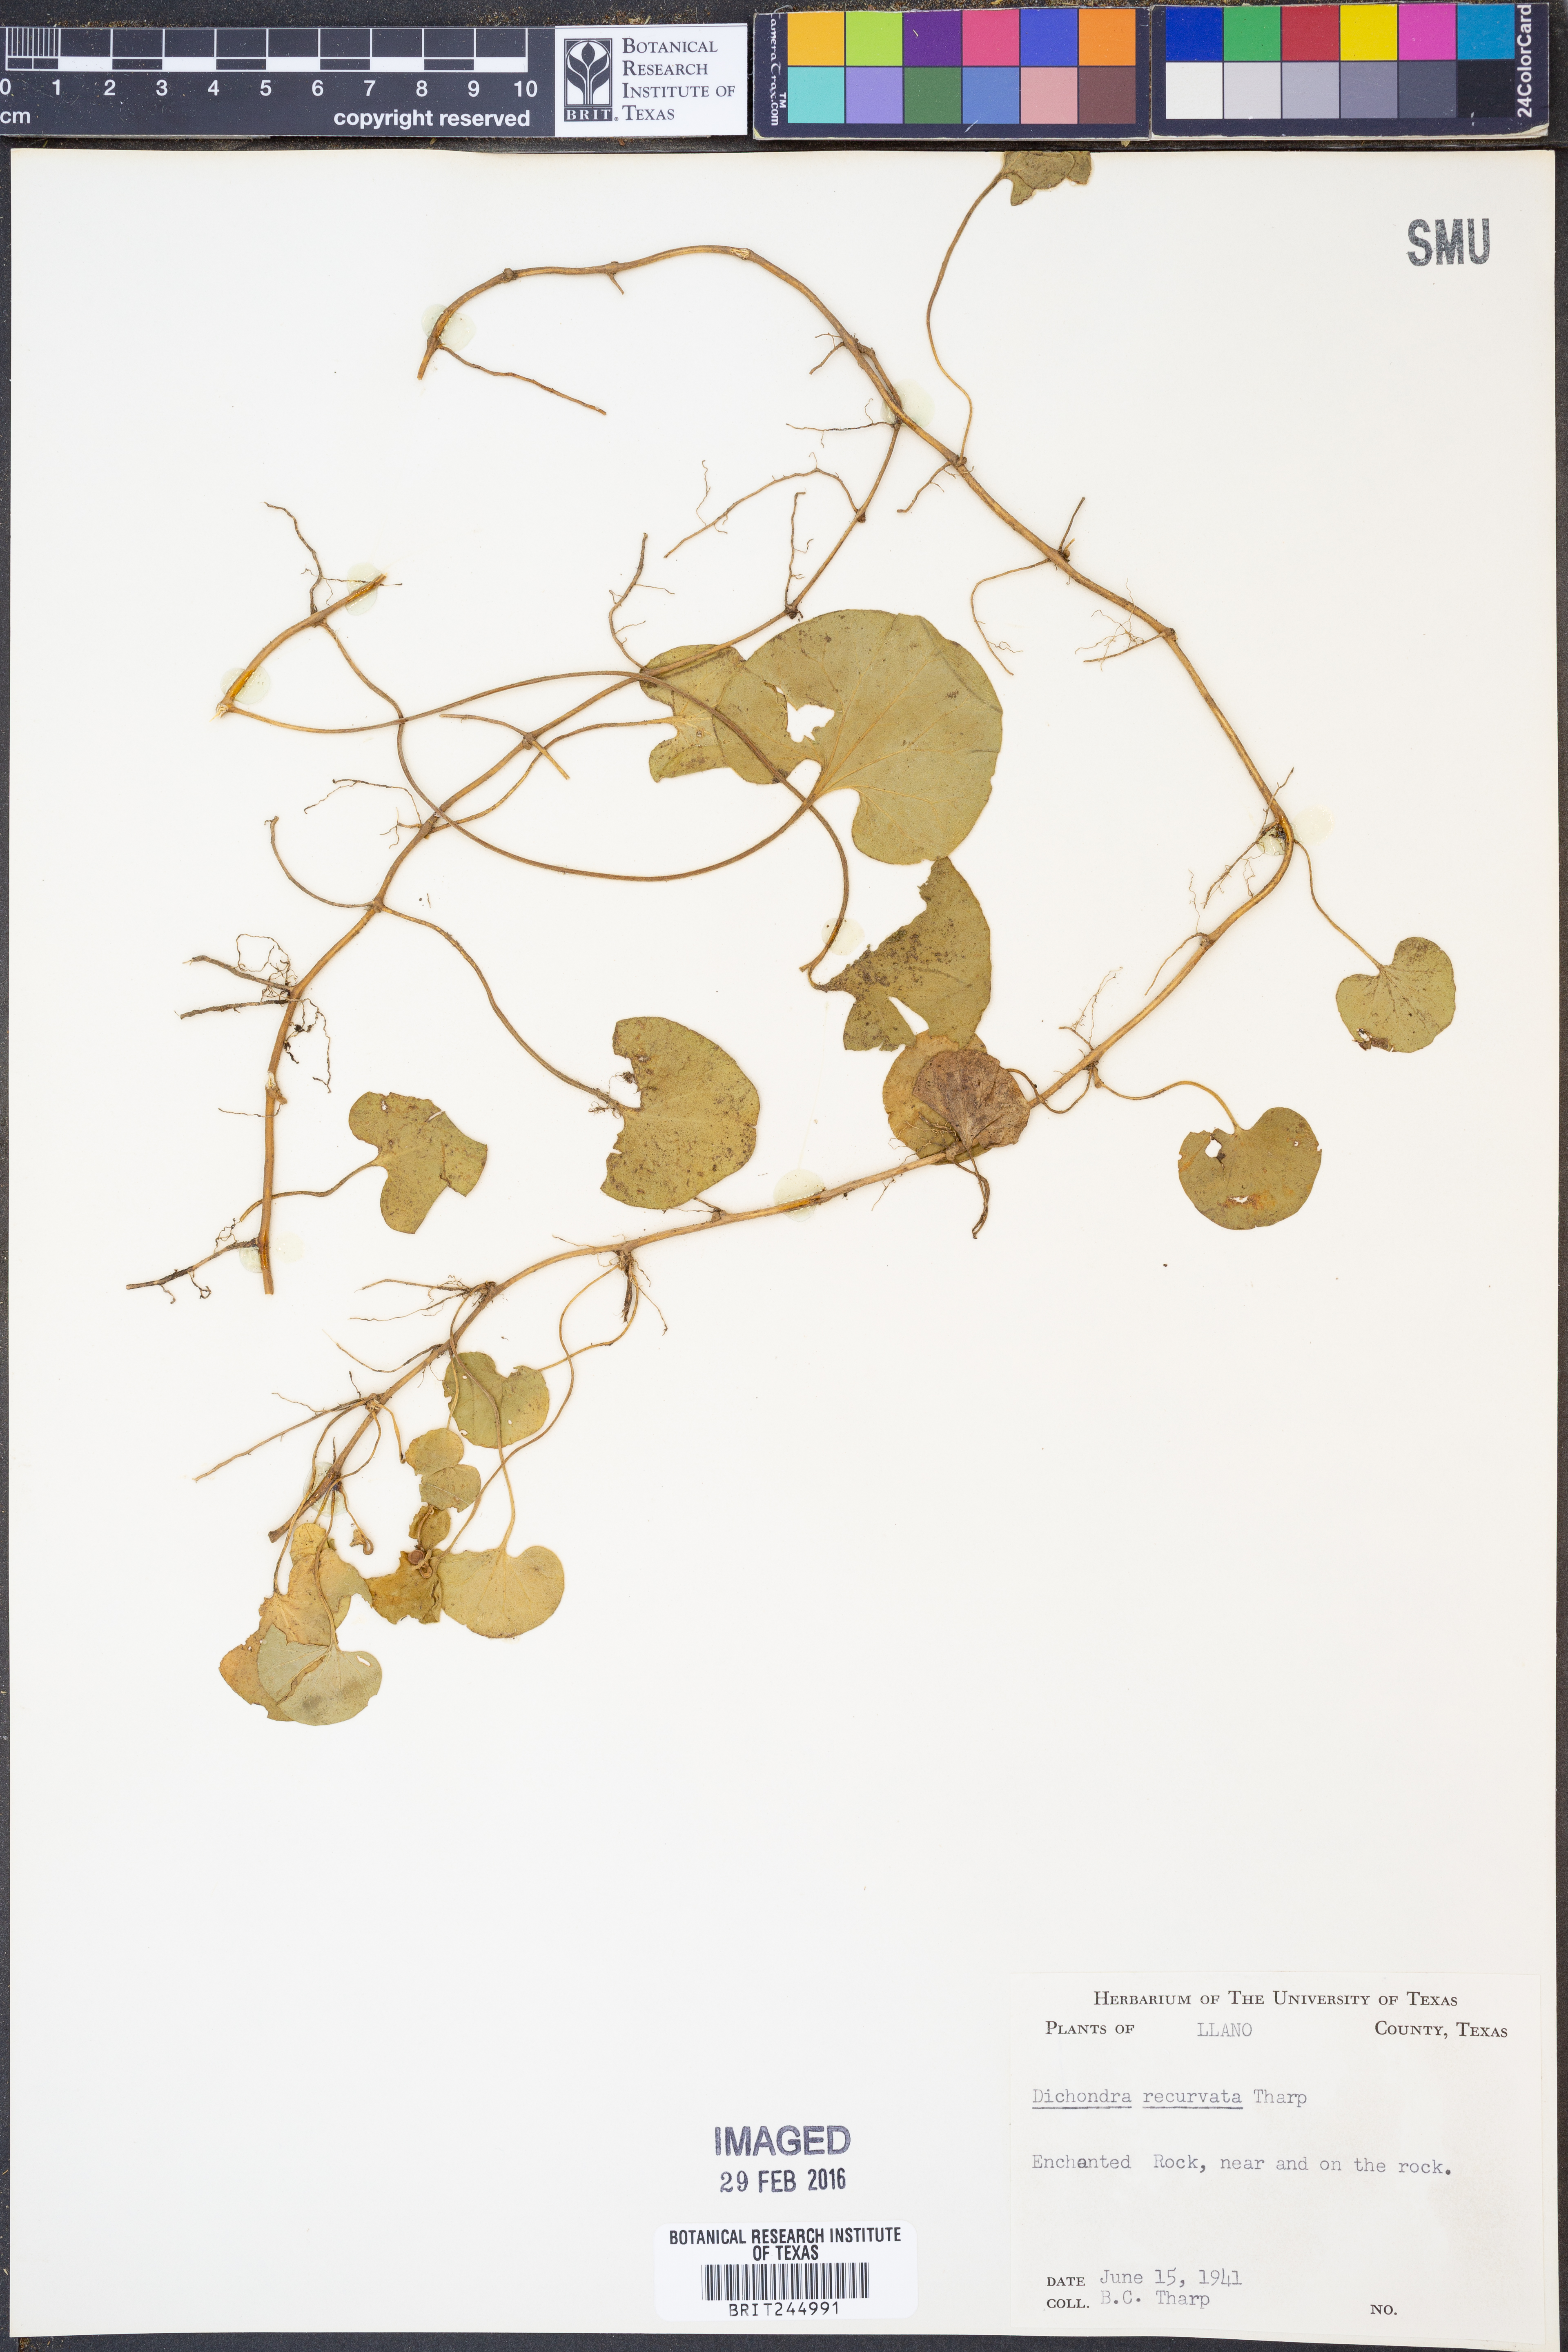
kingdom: Plantae
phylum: Tracheophyta
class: Magnoliopsida
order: Solanales
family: Convolvulaceae
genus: Dichondra
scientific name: Dichondra recurvata
